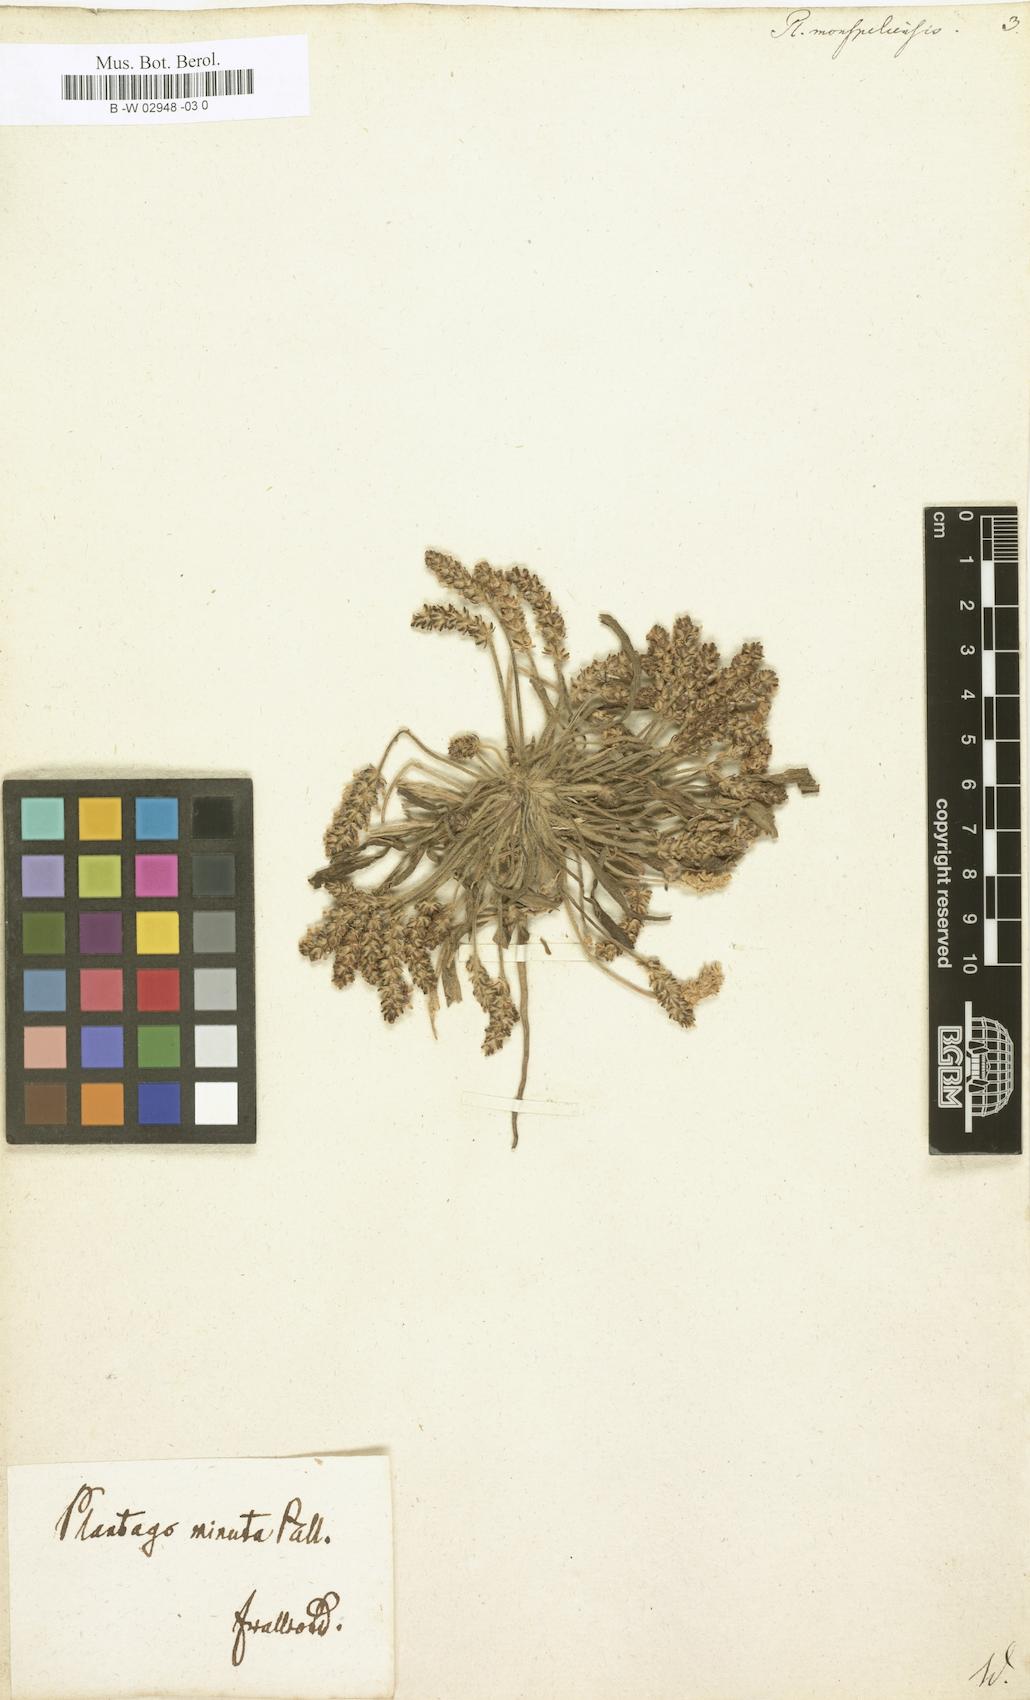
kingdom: Plantae
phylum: Tracheophyta
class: Magnoliopsida
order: Lamiales
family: Plantaginaceae
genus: Plantago
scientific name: Plantago ovata
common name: Blond plantain
